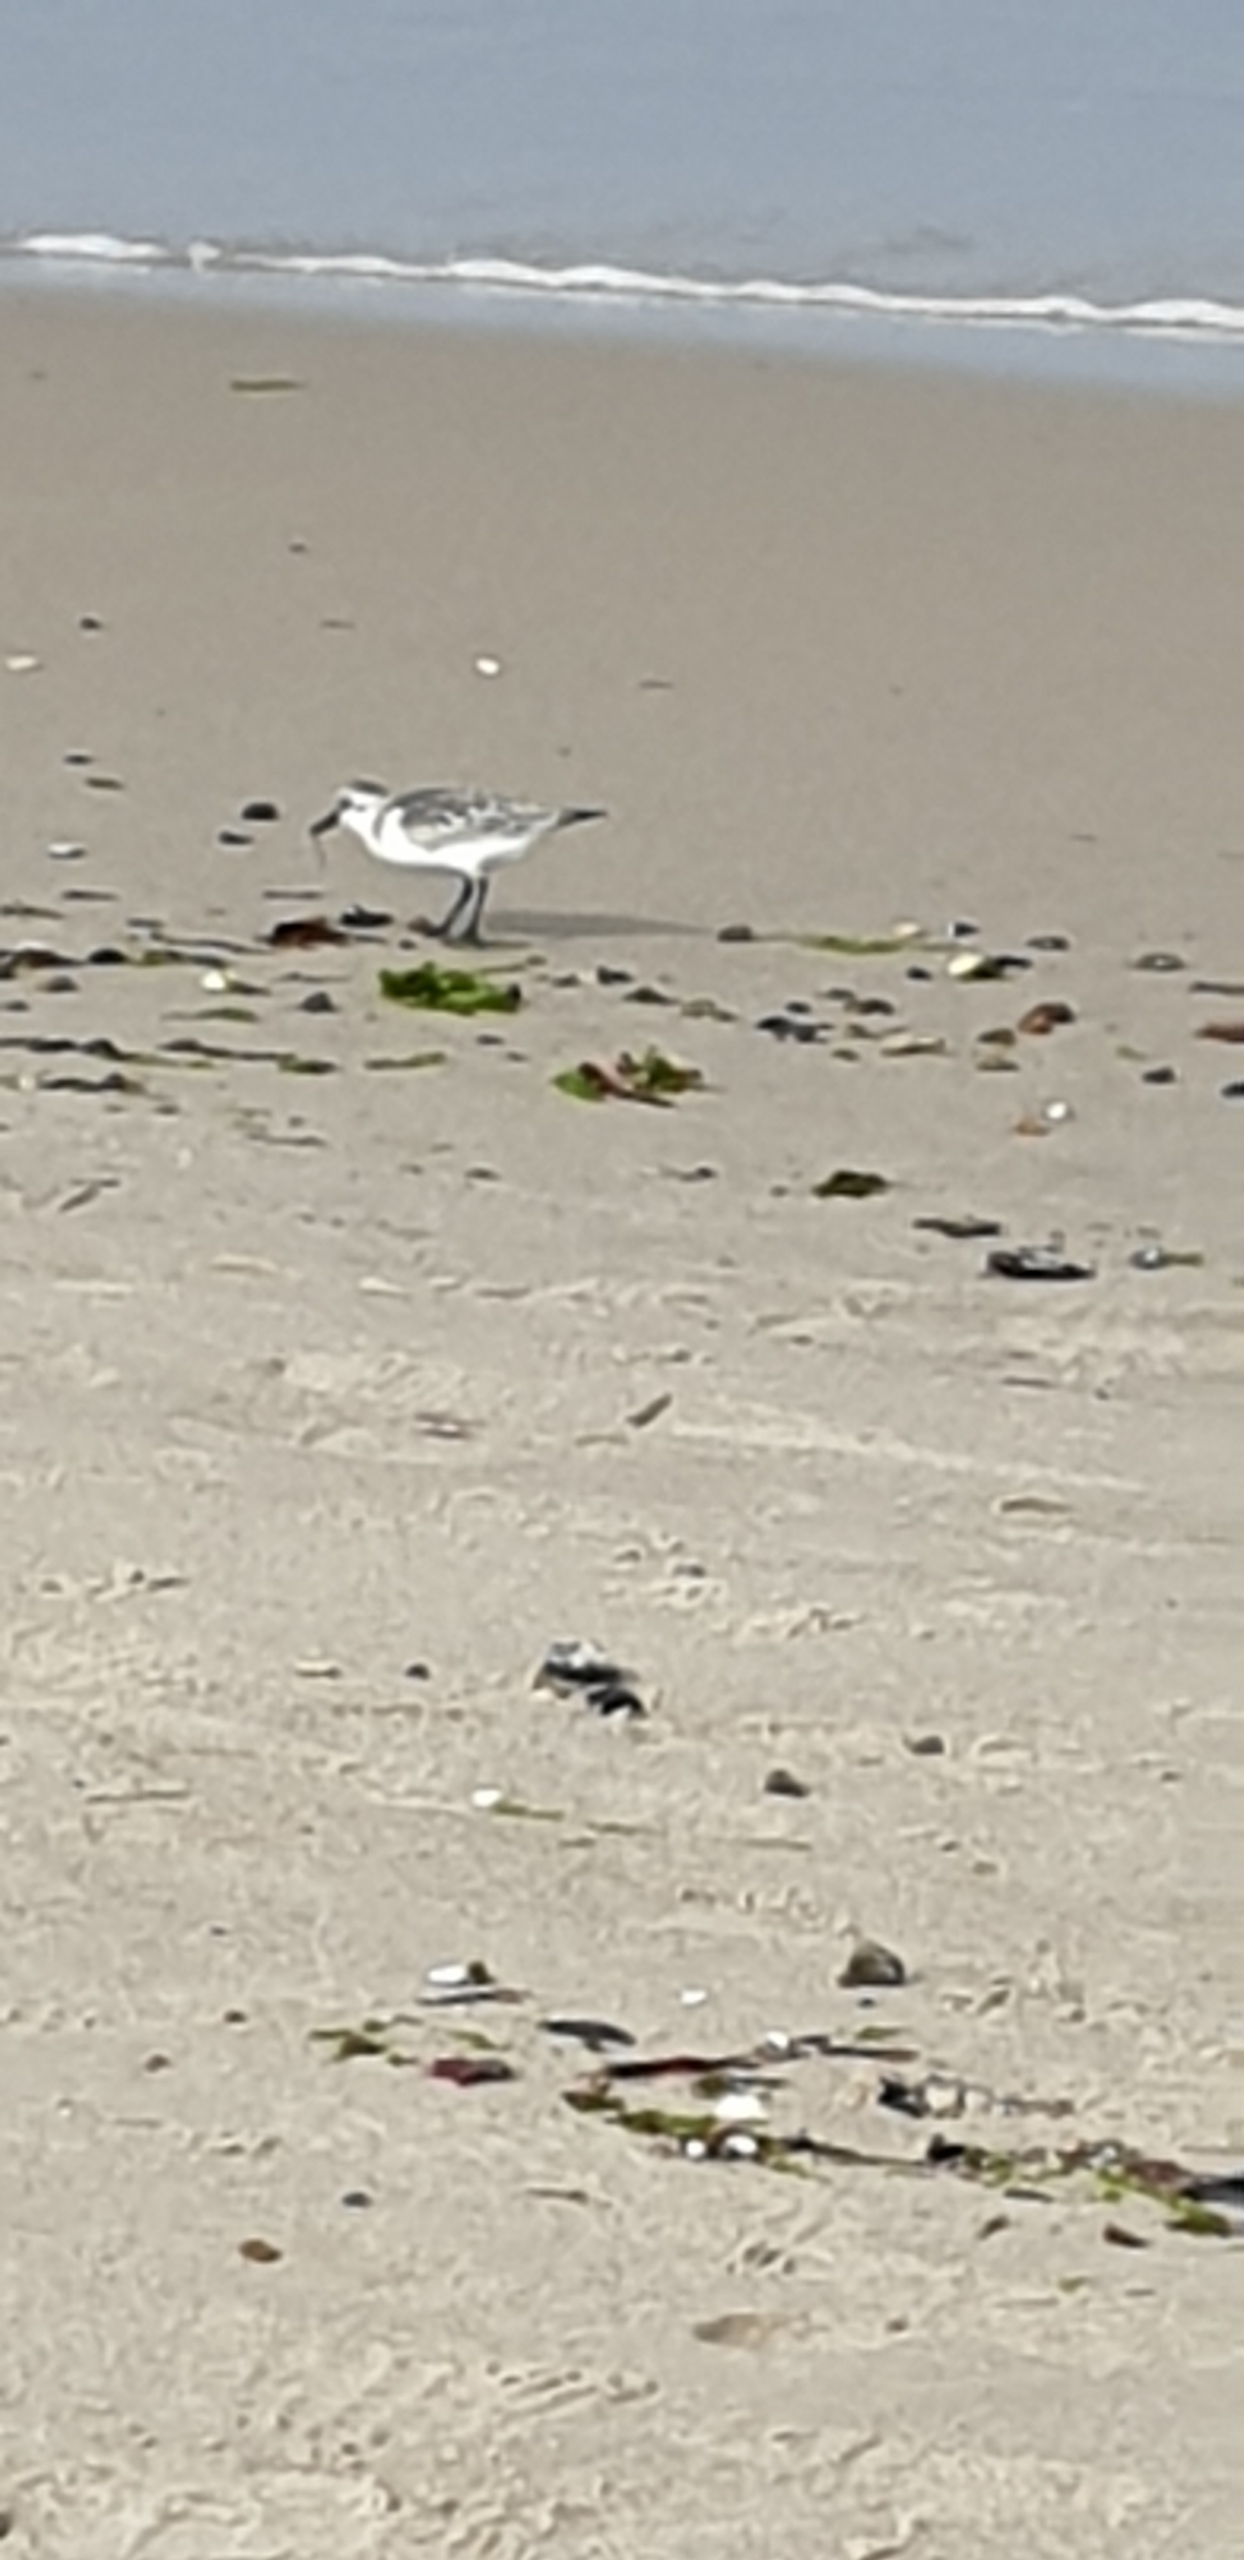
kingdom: Animalia
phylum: Chordata
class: Aves
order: Charadriiformes
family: Scolopacidae
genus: Calidris
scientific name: Calidris alba
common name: Sandløber
